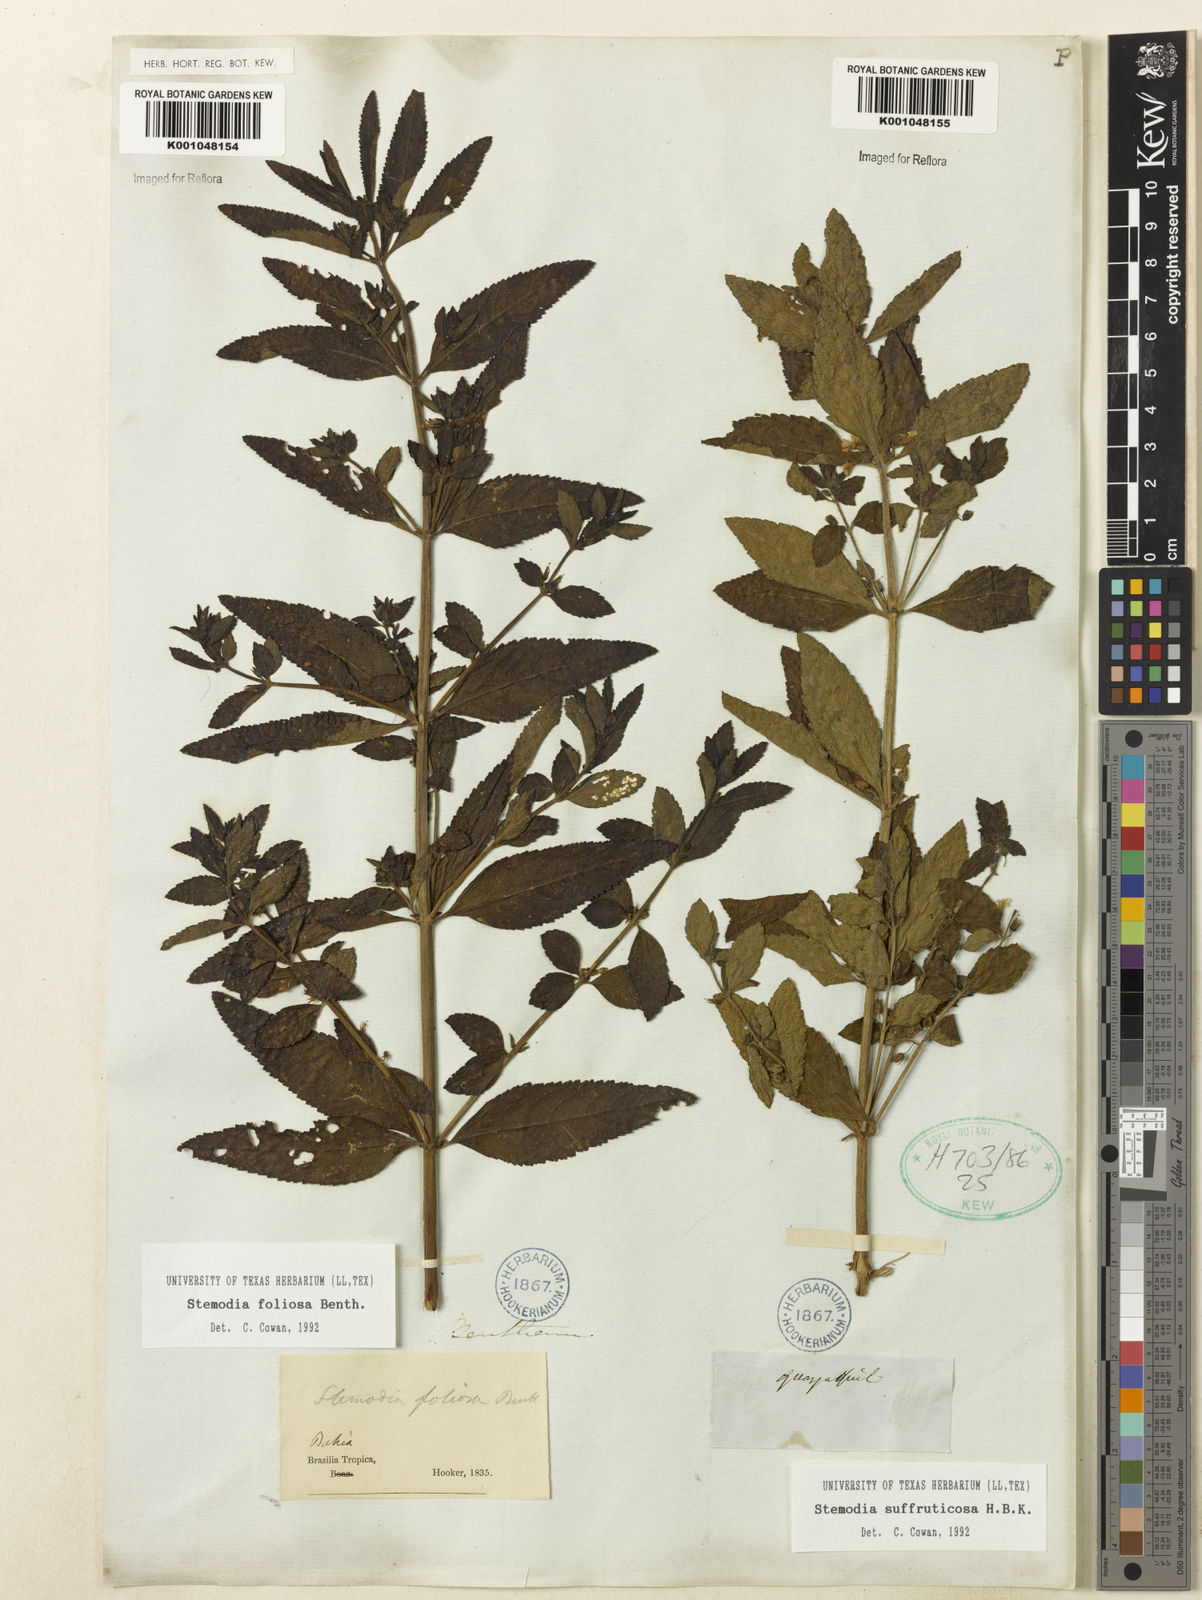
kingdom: Plantae
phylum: Tracheophyta
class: Magnoliopsida
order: Lamiales
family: Plantaginaceae
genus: Stemodia
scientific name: Stemodia foliosa
